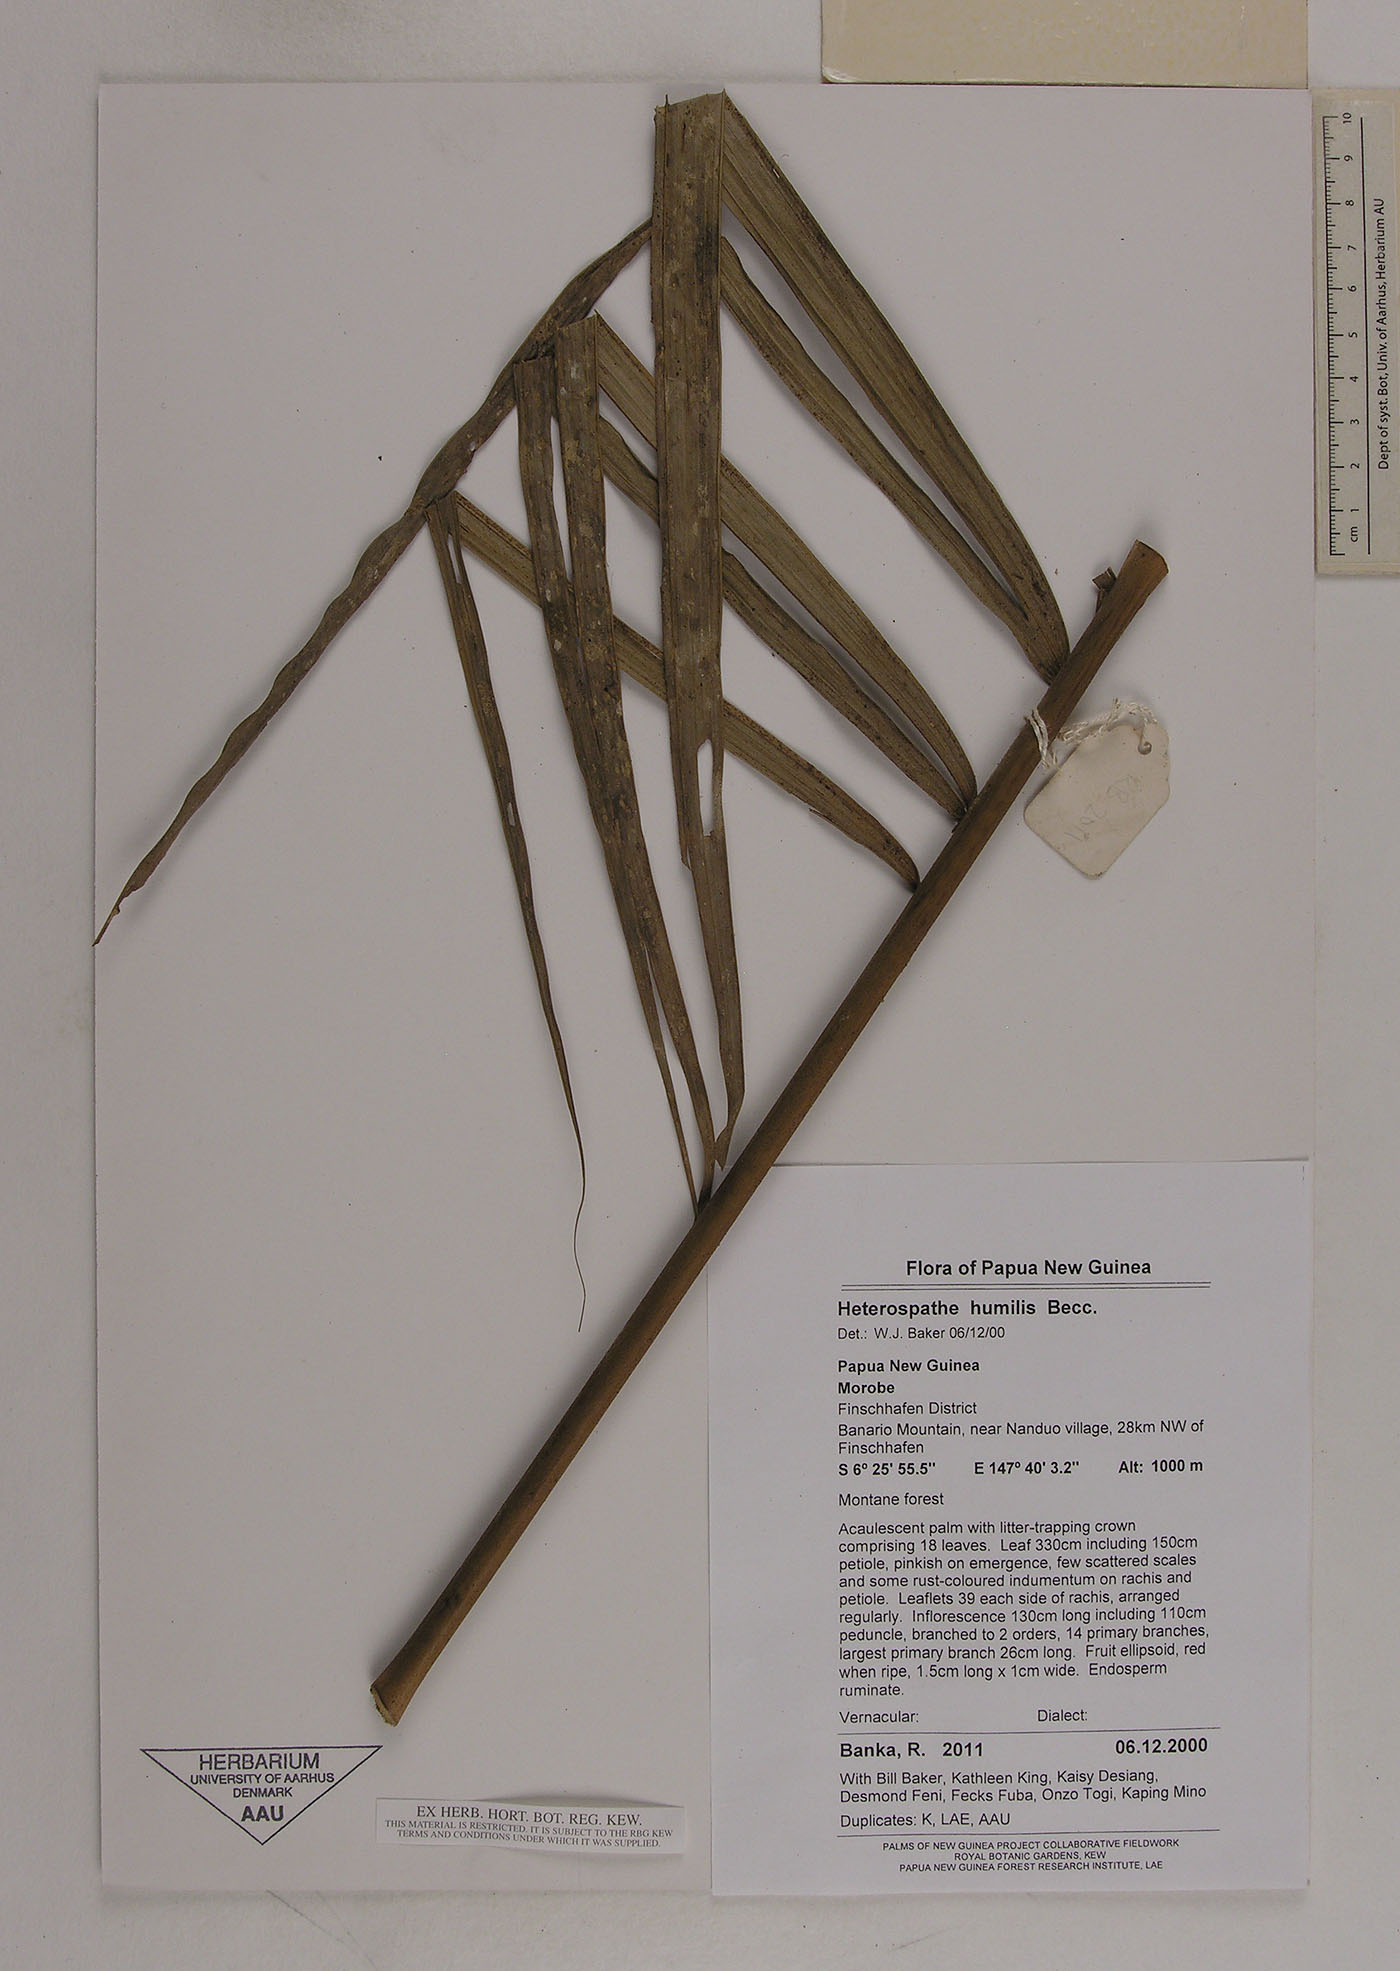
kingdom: Plantae
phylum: Tracheophyta
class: Liliopsida
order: Arecales
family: Arecaceae
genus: Heterospathe
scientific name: Heterospathe elegans
